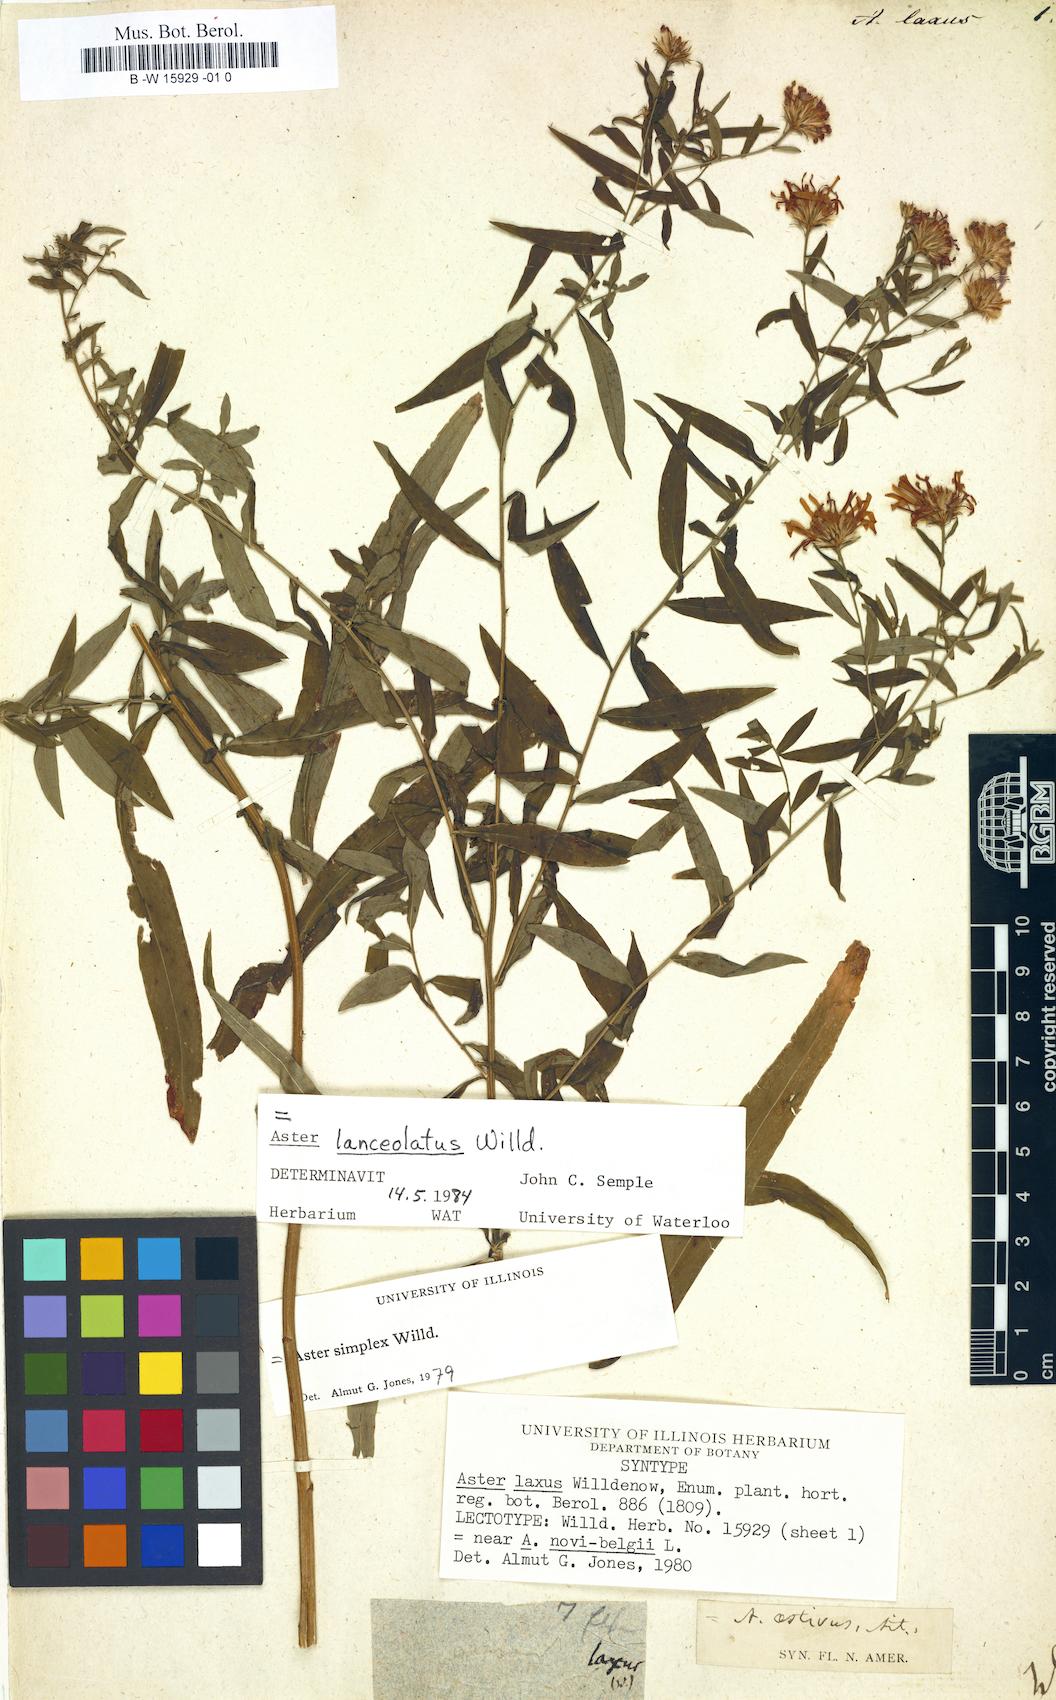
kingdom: Plantae
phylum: Tracheophyta
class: Magnoliopsida
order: Asterales
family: Asteraceae
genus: Symphyotrichum
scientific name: Symphyotrichum lanceolatum
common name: Panicled aster
